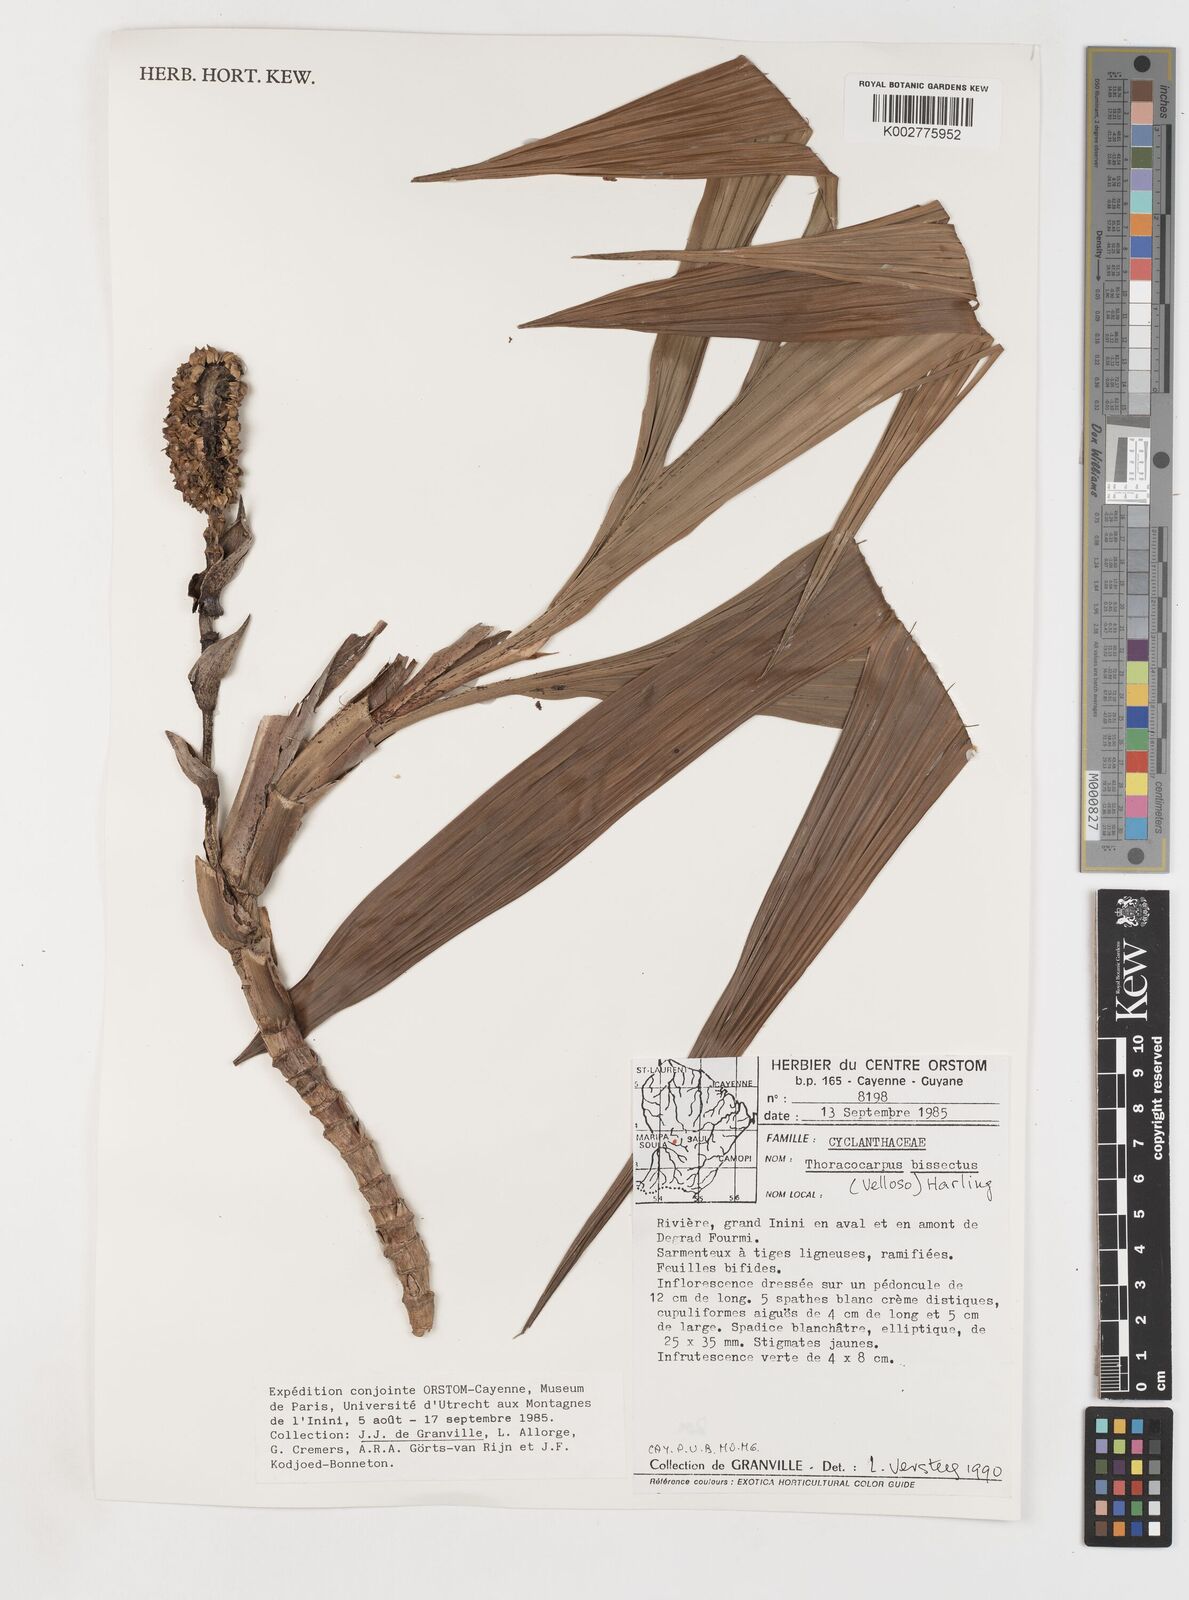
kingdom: Plantae
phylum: Tracheophyta
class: Liliopsida
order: Pandanales
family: Cyclanthaceae
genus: Thoracocarpus
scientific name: Thoracocarpus bissectus
